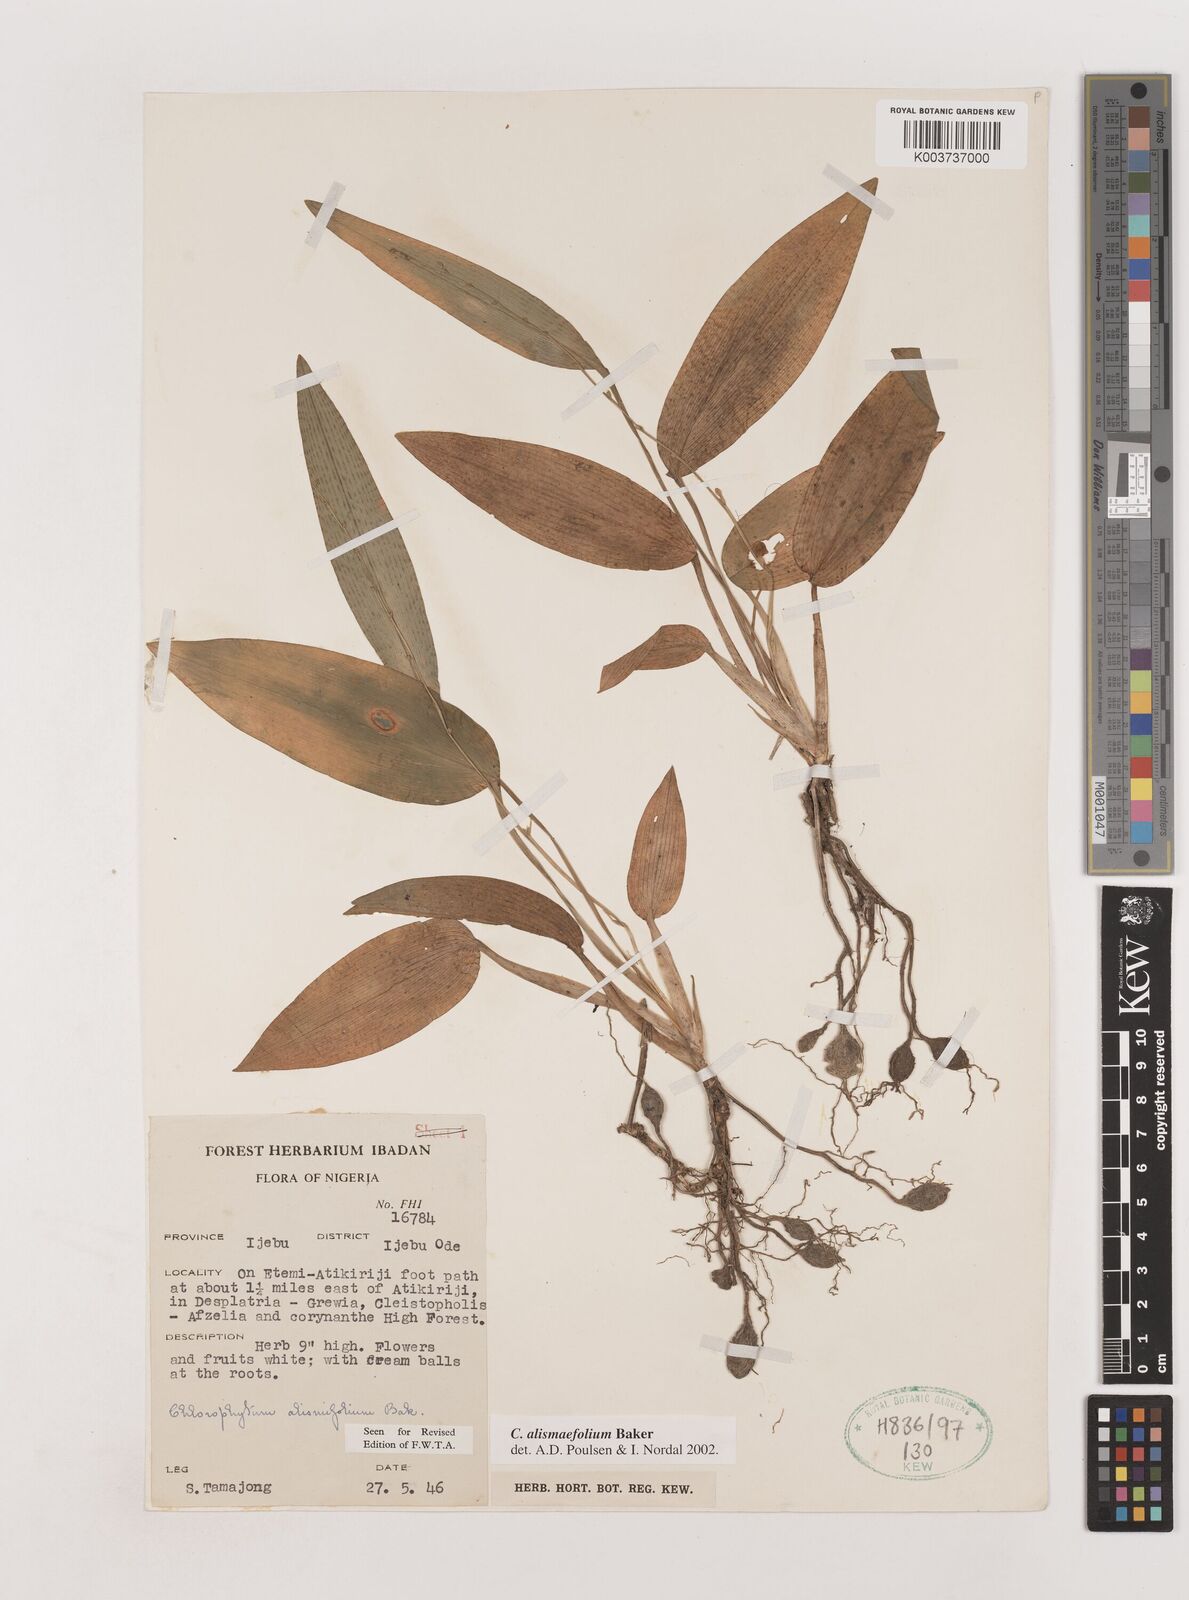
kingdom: Plantae
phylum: Tracheophyta
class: Liliopsida
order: Asparagales
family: Asparagaceae
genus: Chlorophytum
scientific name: Chlorophytum alismifolium
